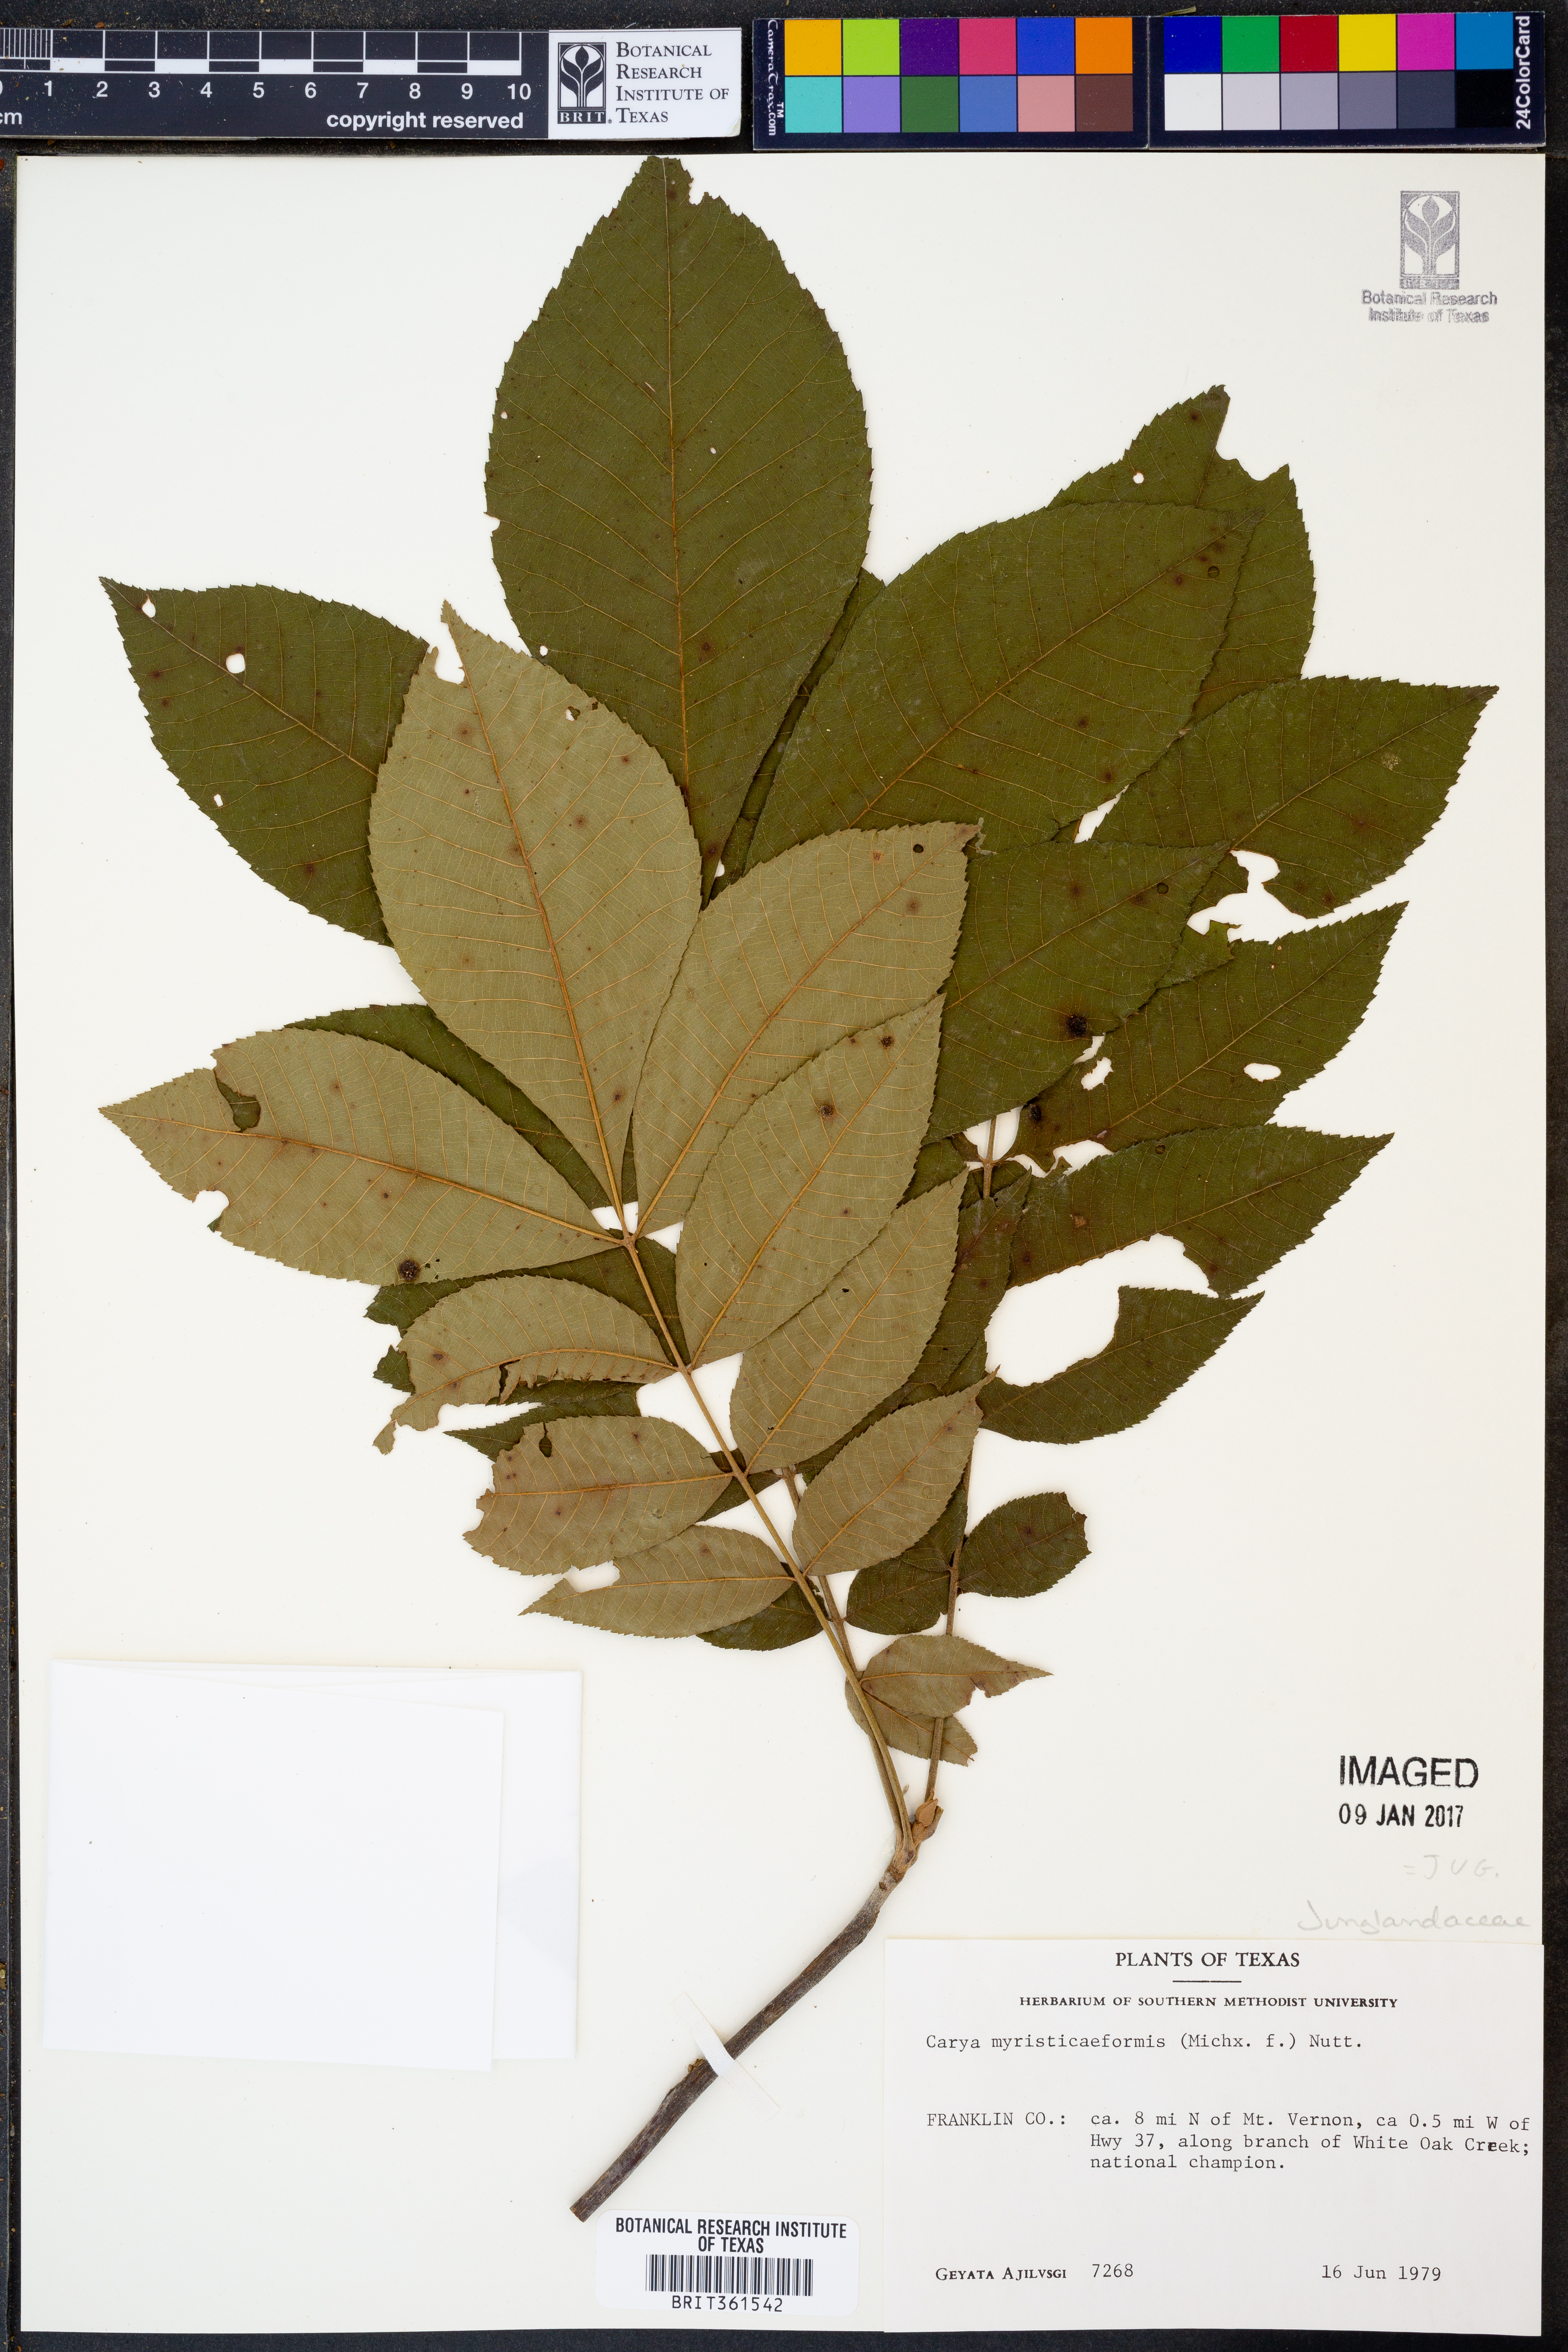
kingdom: Plantae
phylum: Tracheophyta
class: Magnoliopsida
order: Fagales
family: Juglandaceae
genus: Carya
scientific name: Carya myristiciformis
